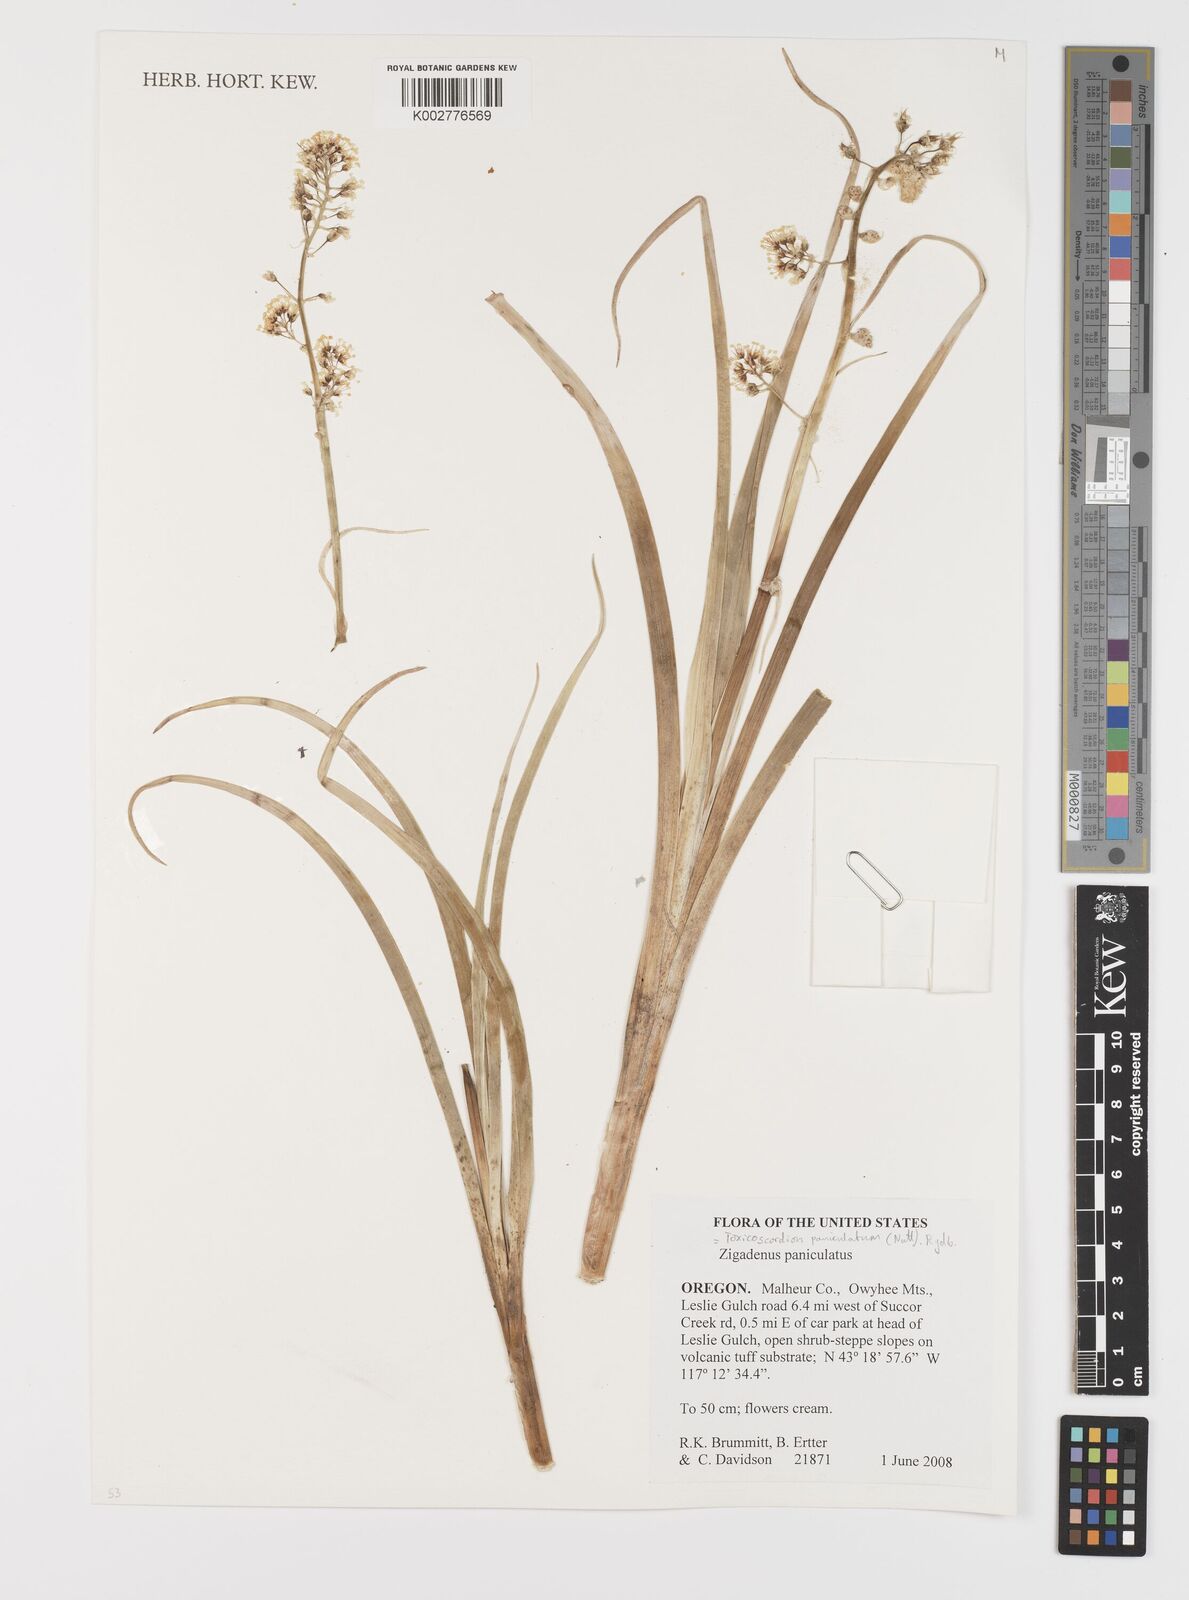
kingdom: Plantae
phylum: Tracheophyta
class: Liliopsida
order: Liliales
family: Melanthiaceae
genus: Toxicoscordion
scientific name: Toxicoscordion paniculatum
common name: Foothill death camas
